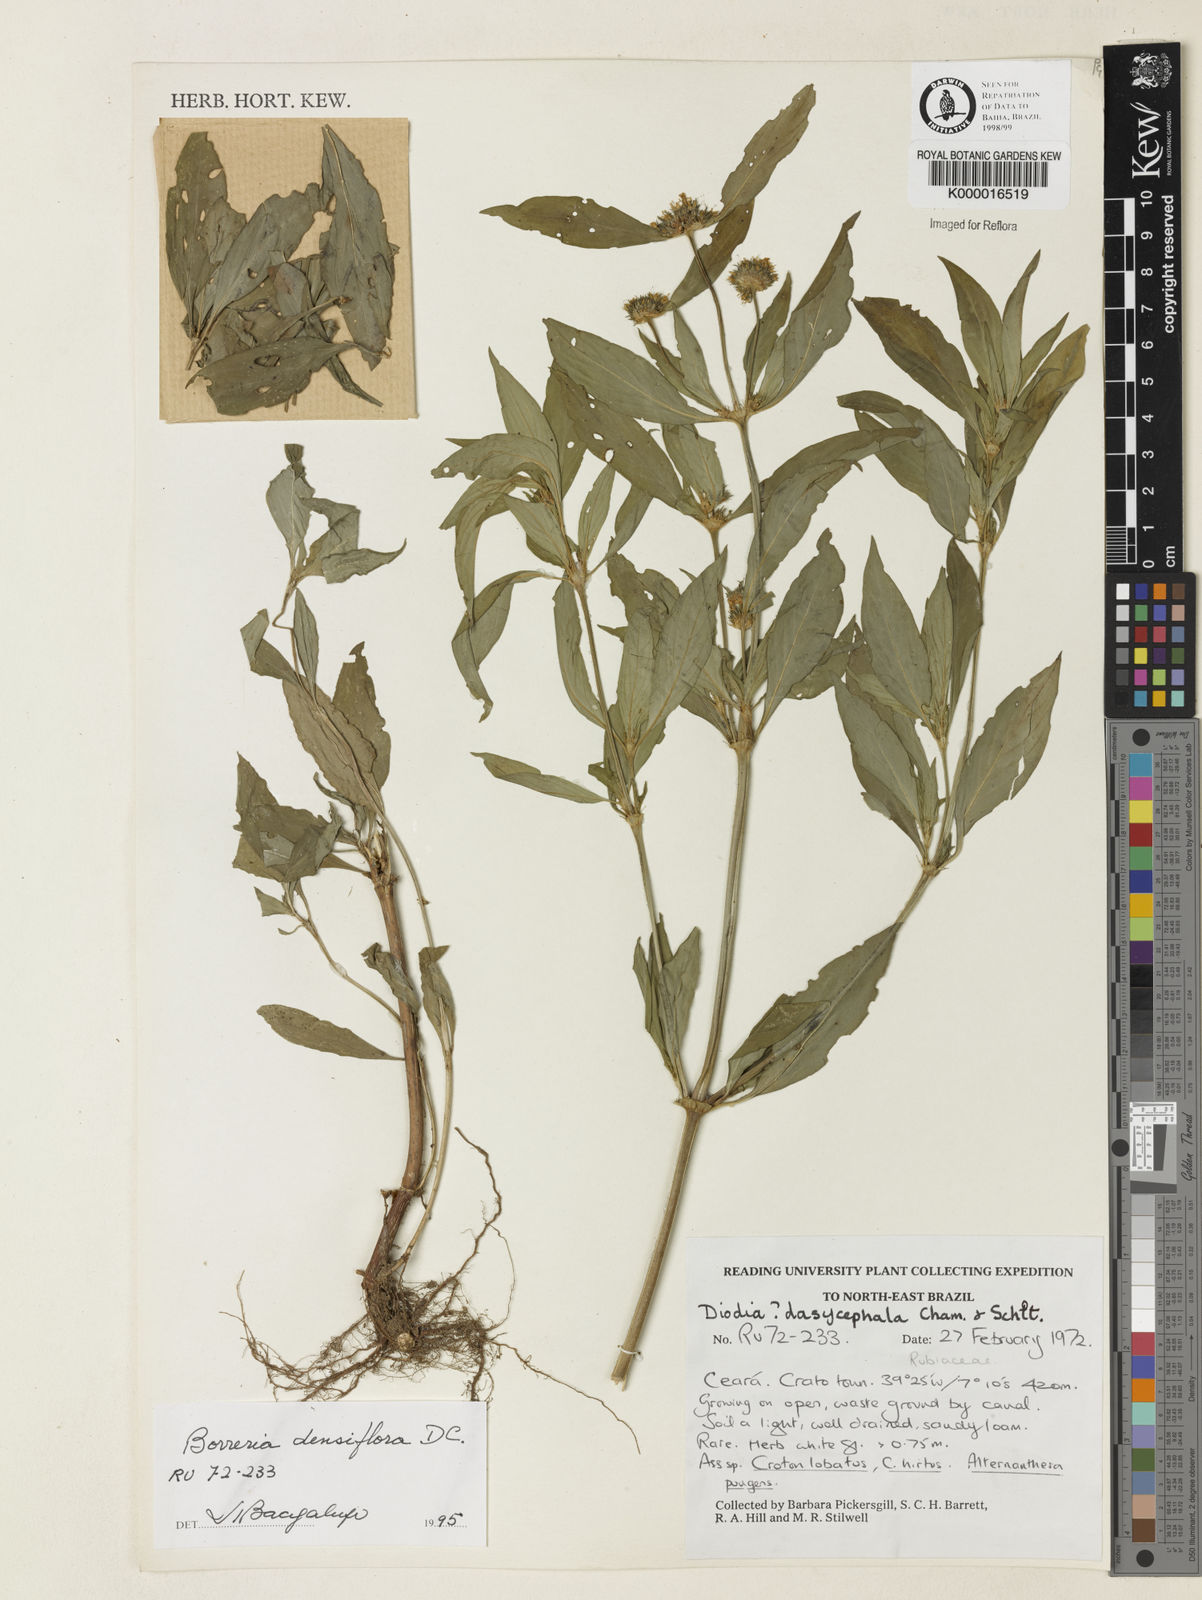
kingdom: Plantae
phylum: Tracheophyta
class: Magnoliopsida
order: Gentianales
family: Rubiaceae
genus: Spermacoce
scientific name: Spermacoce densiflora
